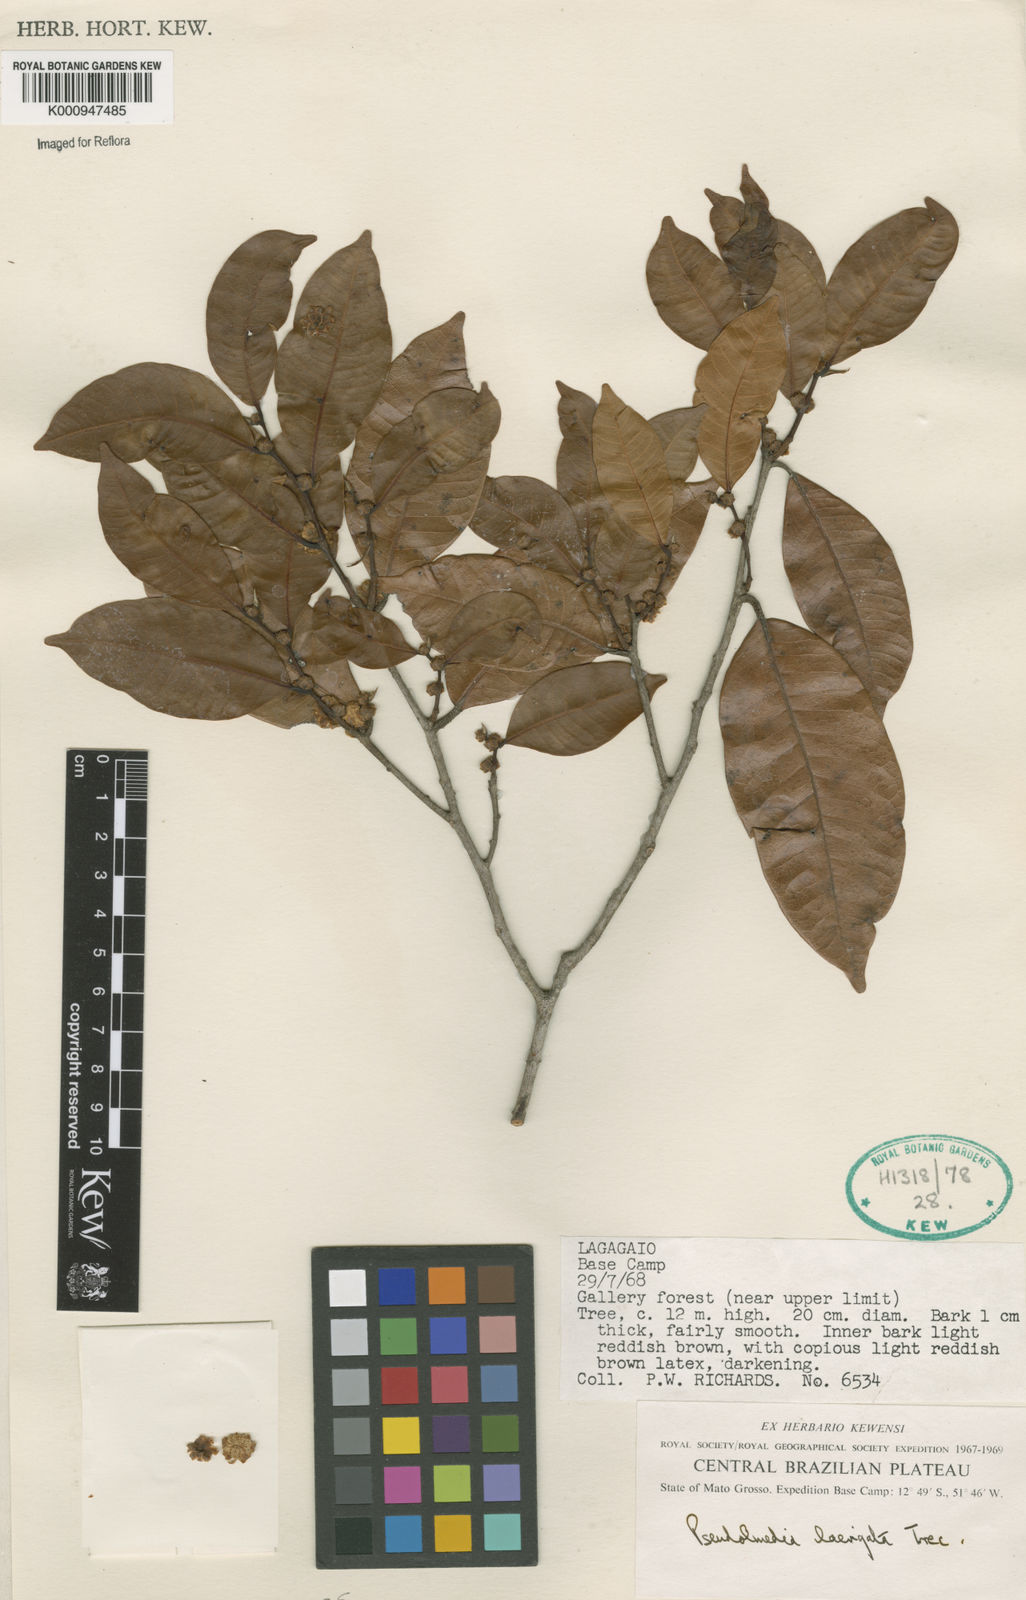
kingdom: Plantae
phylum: Tracheophyta
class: Magnoliopsida
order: Rosales
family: Moraceae
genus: Pseudolmedia
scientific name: Pseudolmedia
